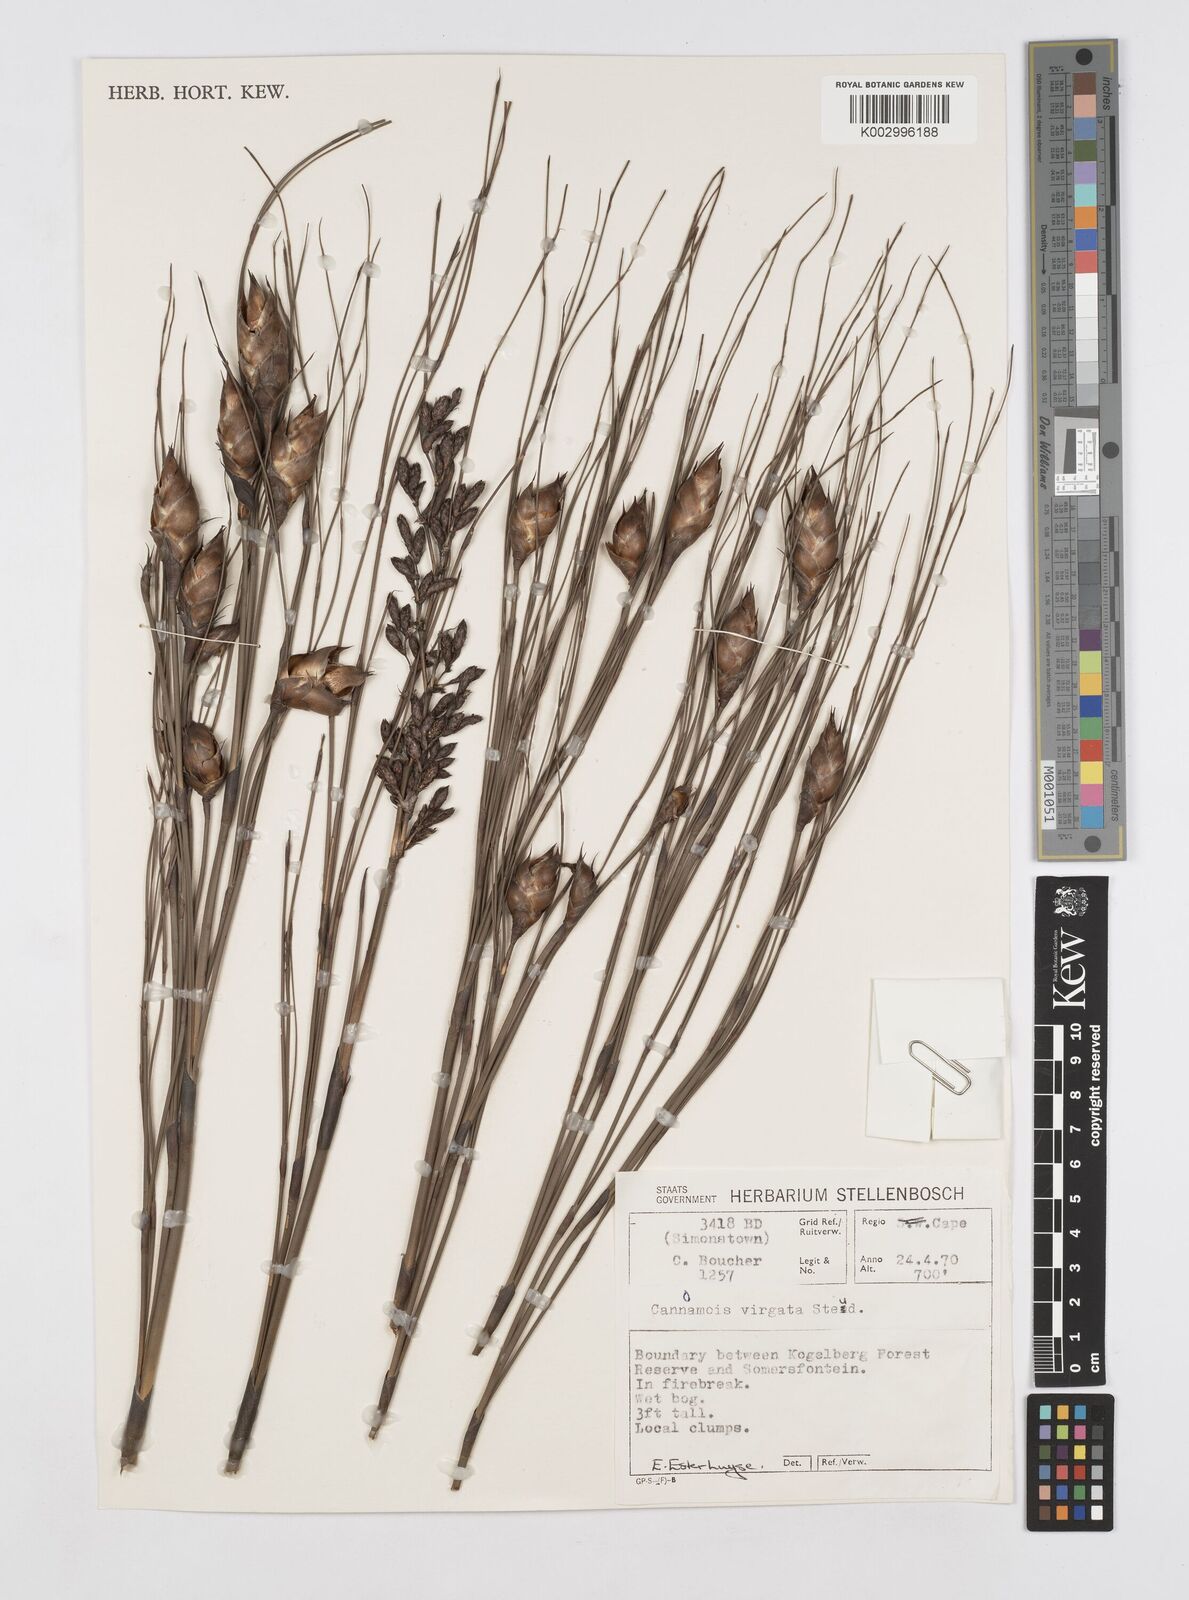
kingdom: Plantae
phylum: Tracheophyta
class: Liliopsida
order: Poales
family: Restionaceae
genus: Cannomois
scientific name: Cannomois virgata
